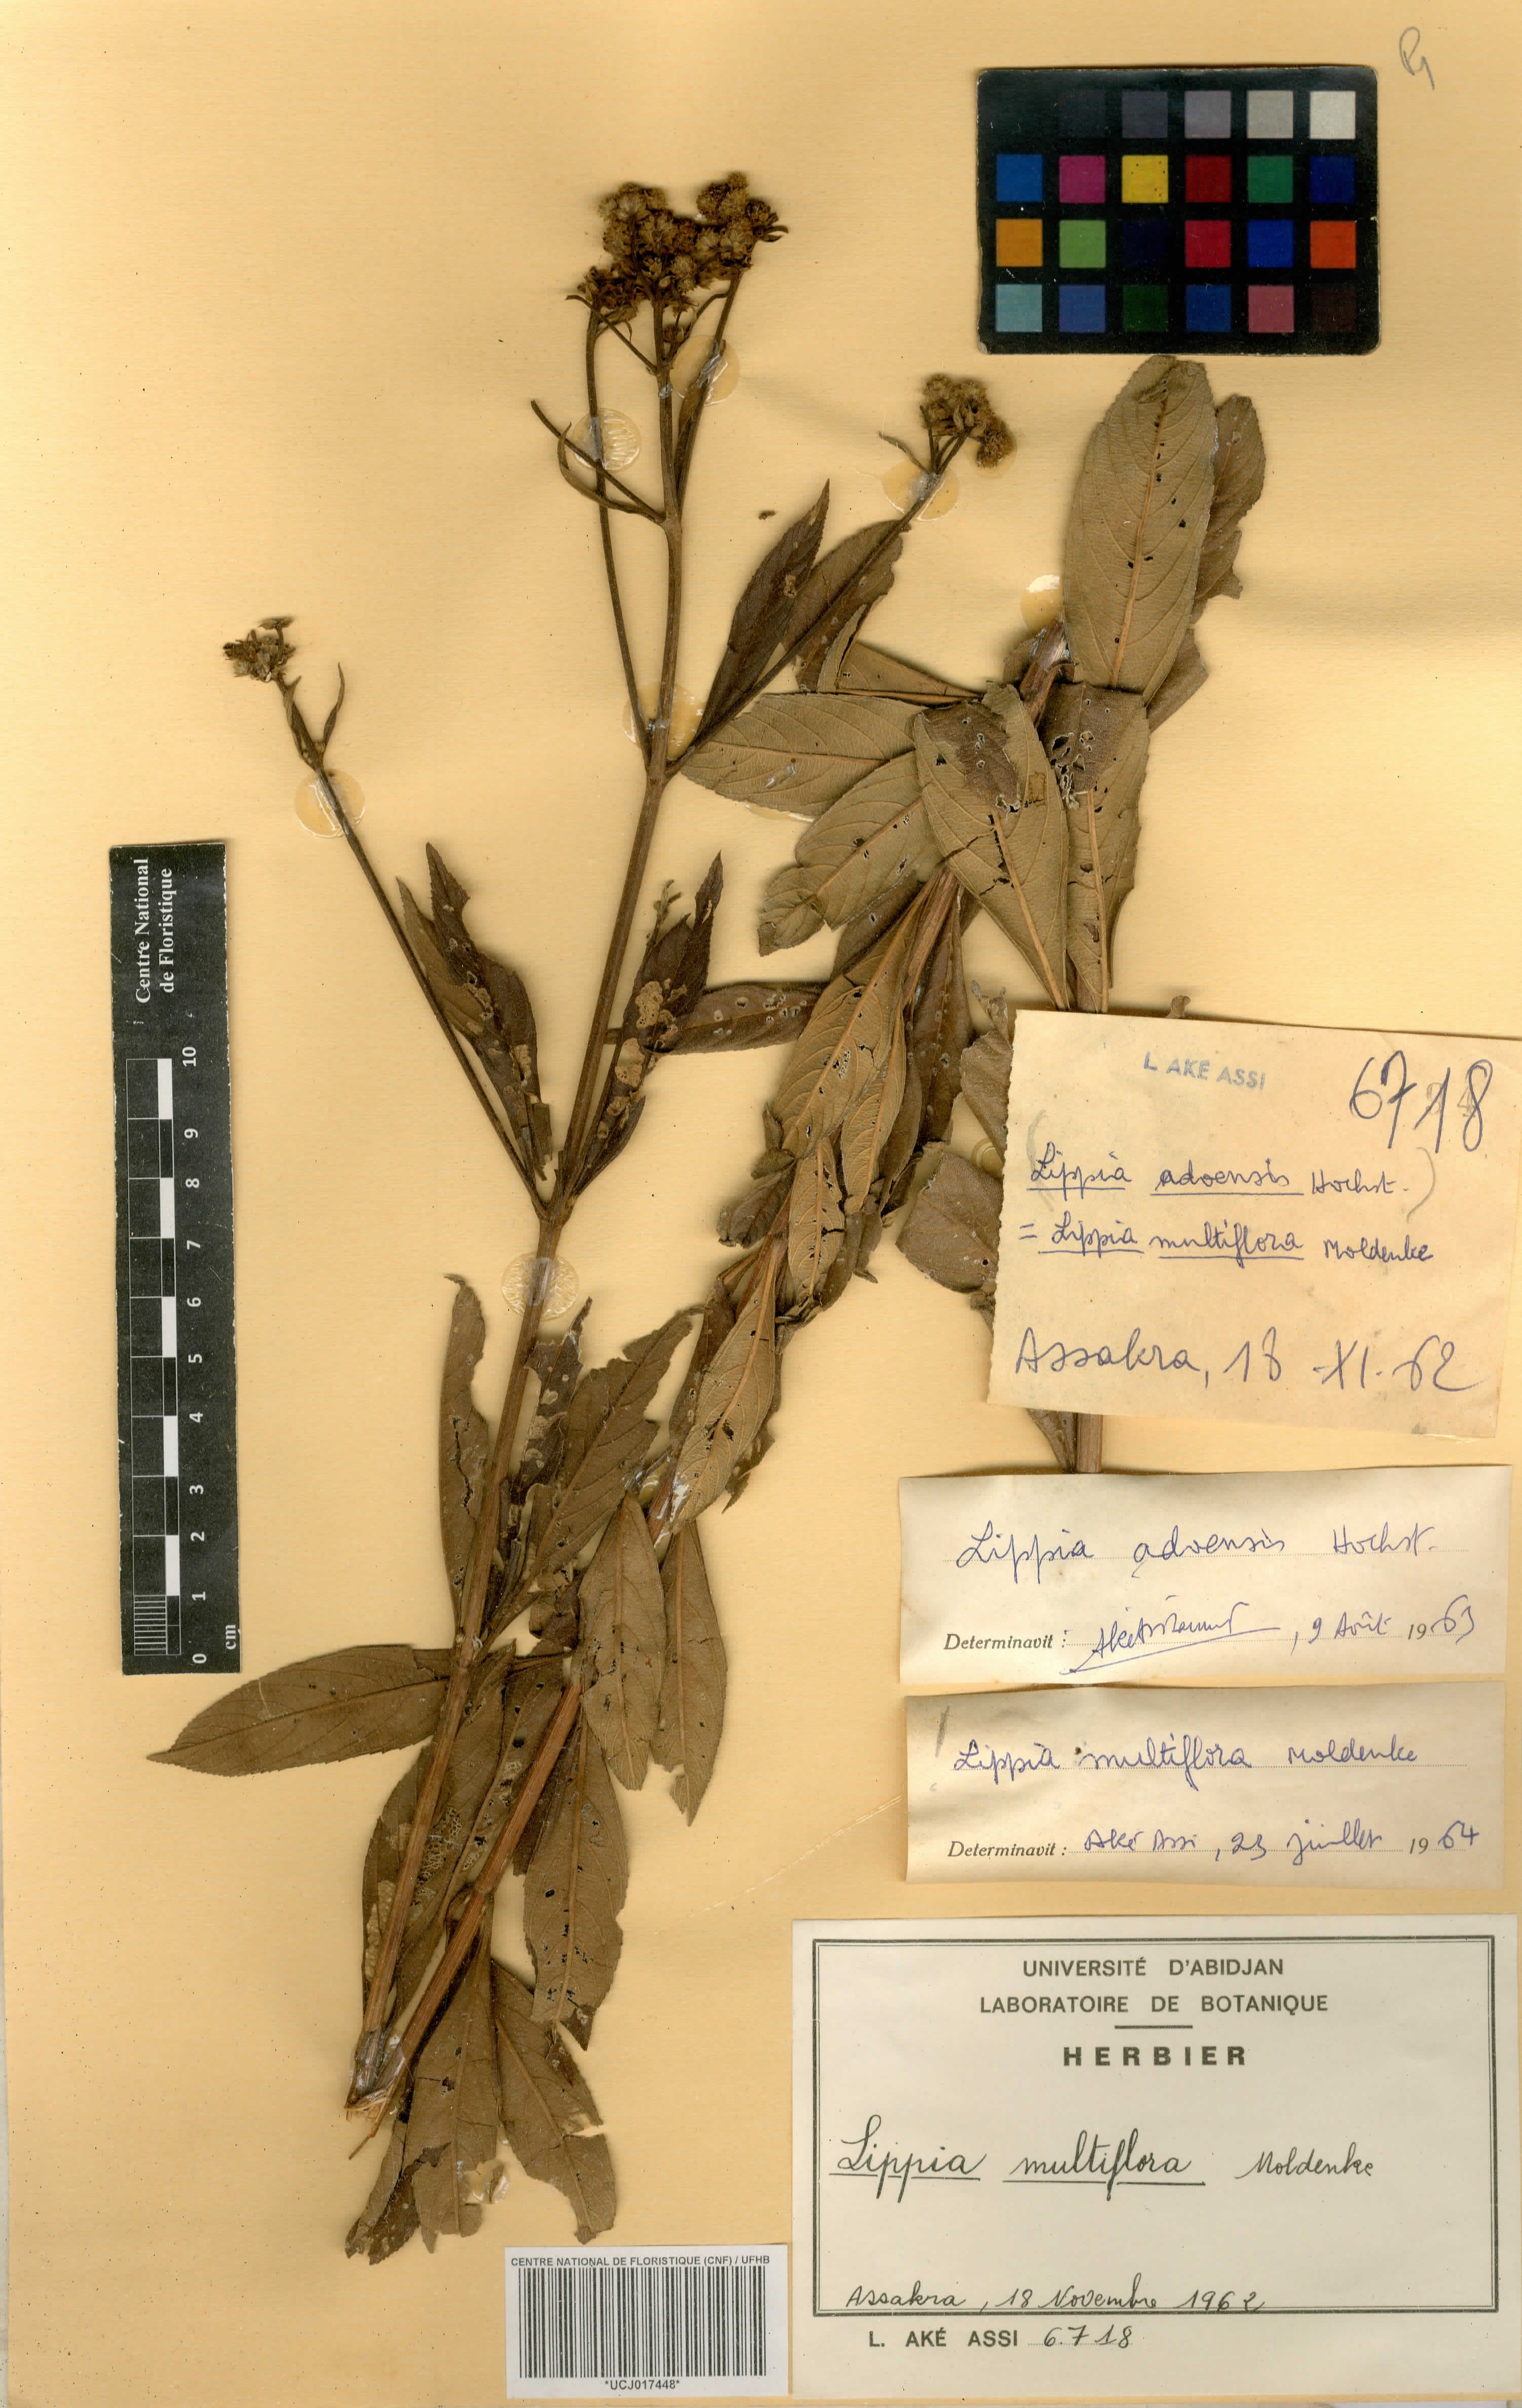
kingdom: Plantae
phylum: Tracheophyta
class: Magnoliopsida
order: Lamiales
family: Verbenaceae
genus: Lippia
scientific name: Lippia multiflora
